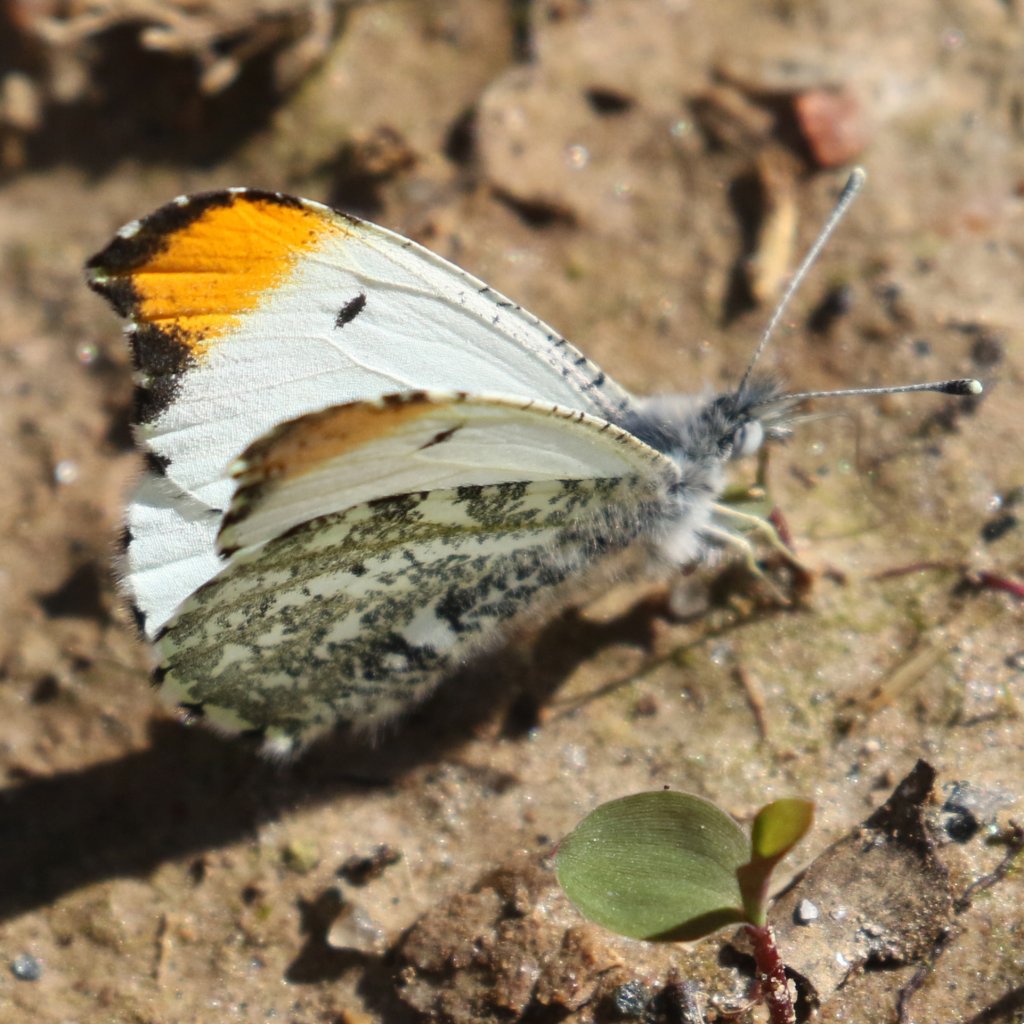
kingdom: Animalia
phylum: Arthropoda
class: Insecta
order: Lepidoptera
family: Pieridae
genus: Anthocharis
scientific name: Anthocharis midea
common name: Falcate Orangetip
